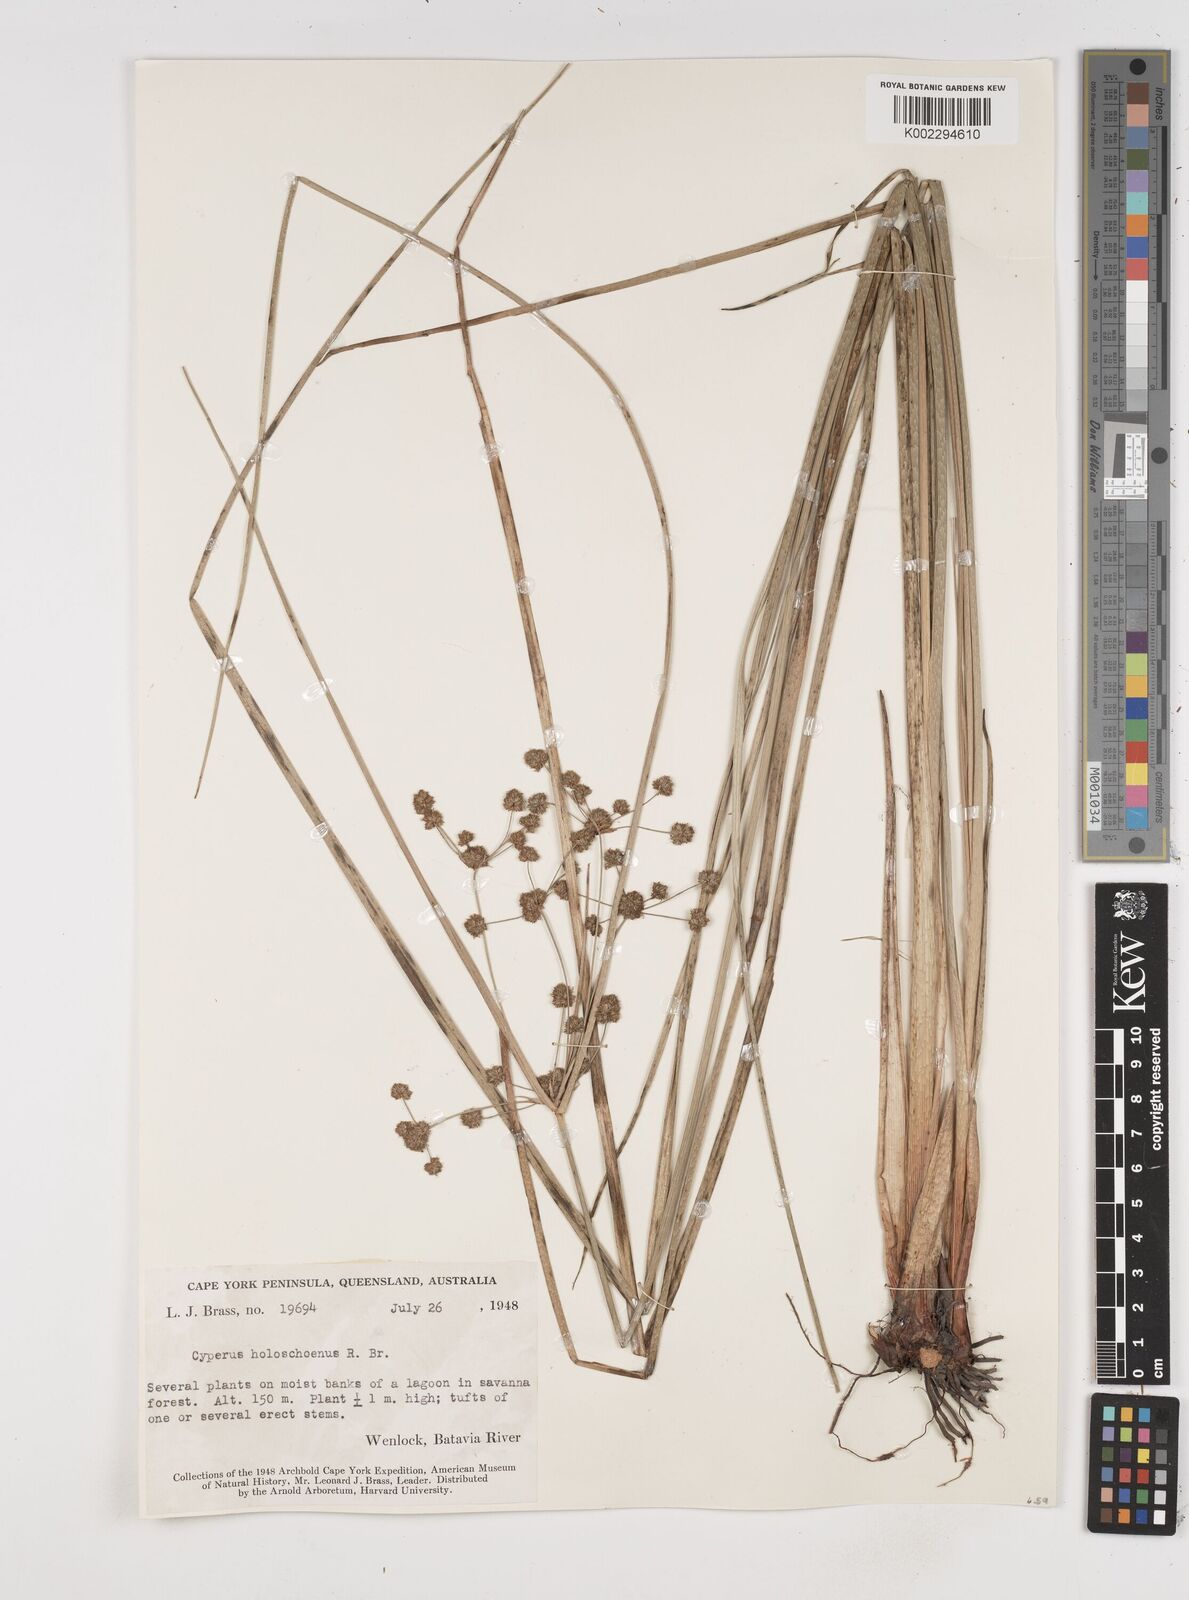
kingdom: Plantae
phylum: Tracheophyta
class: Liliopsida
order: Poales
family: Cyperaceae
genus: Cyperus
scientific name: Cyperus holoschoenus
